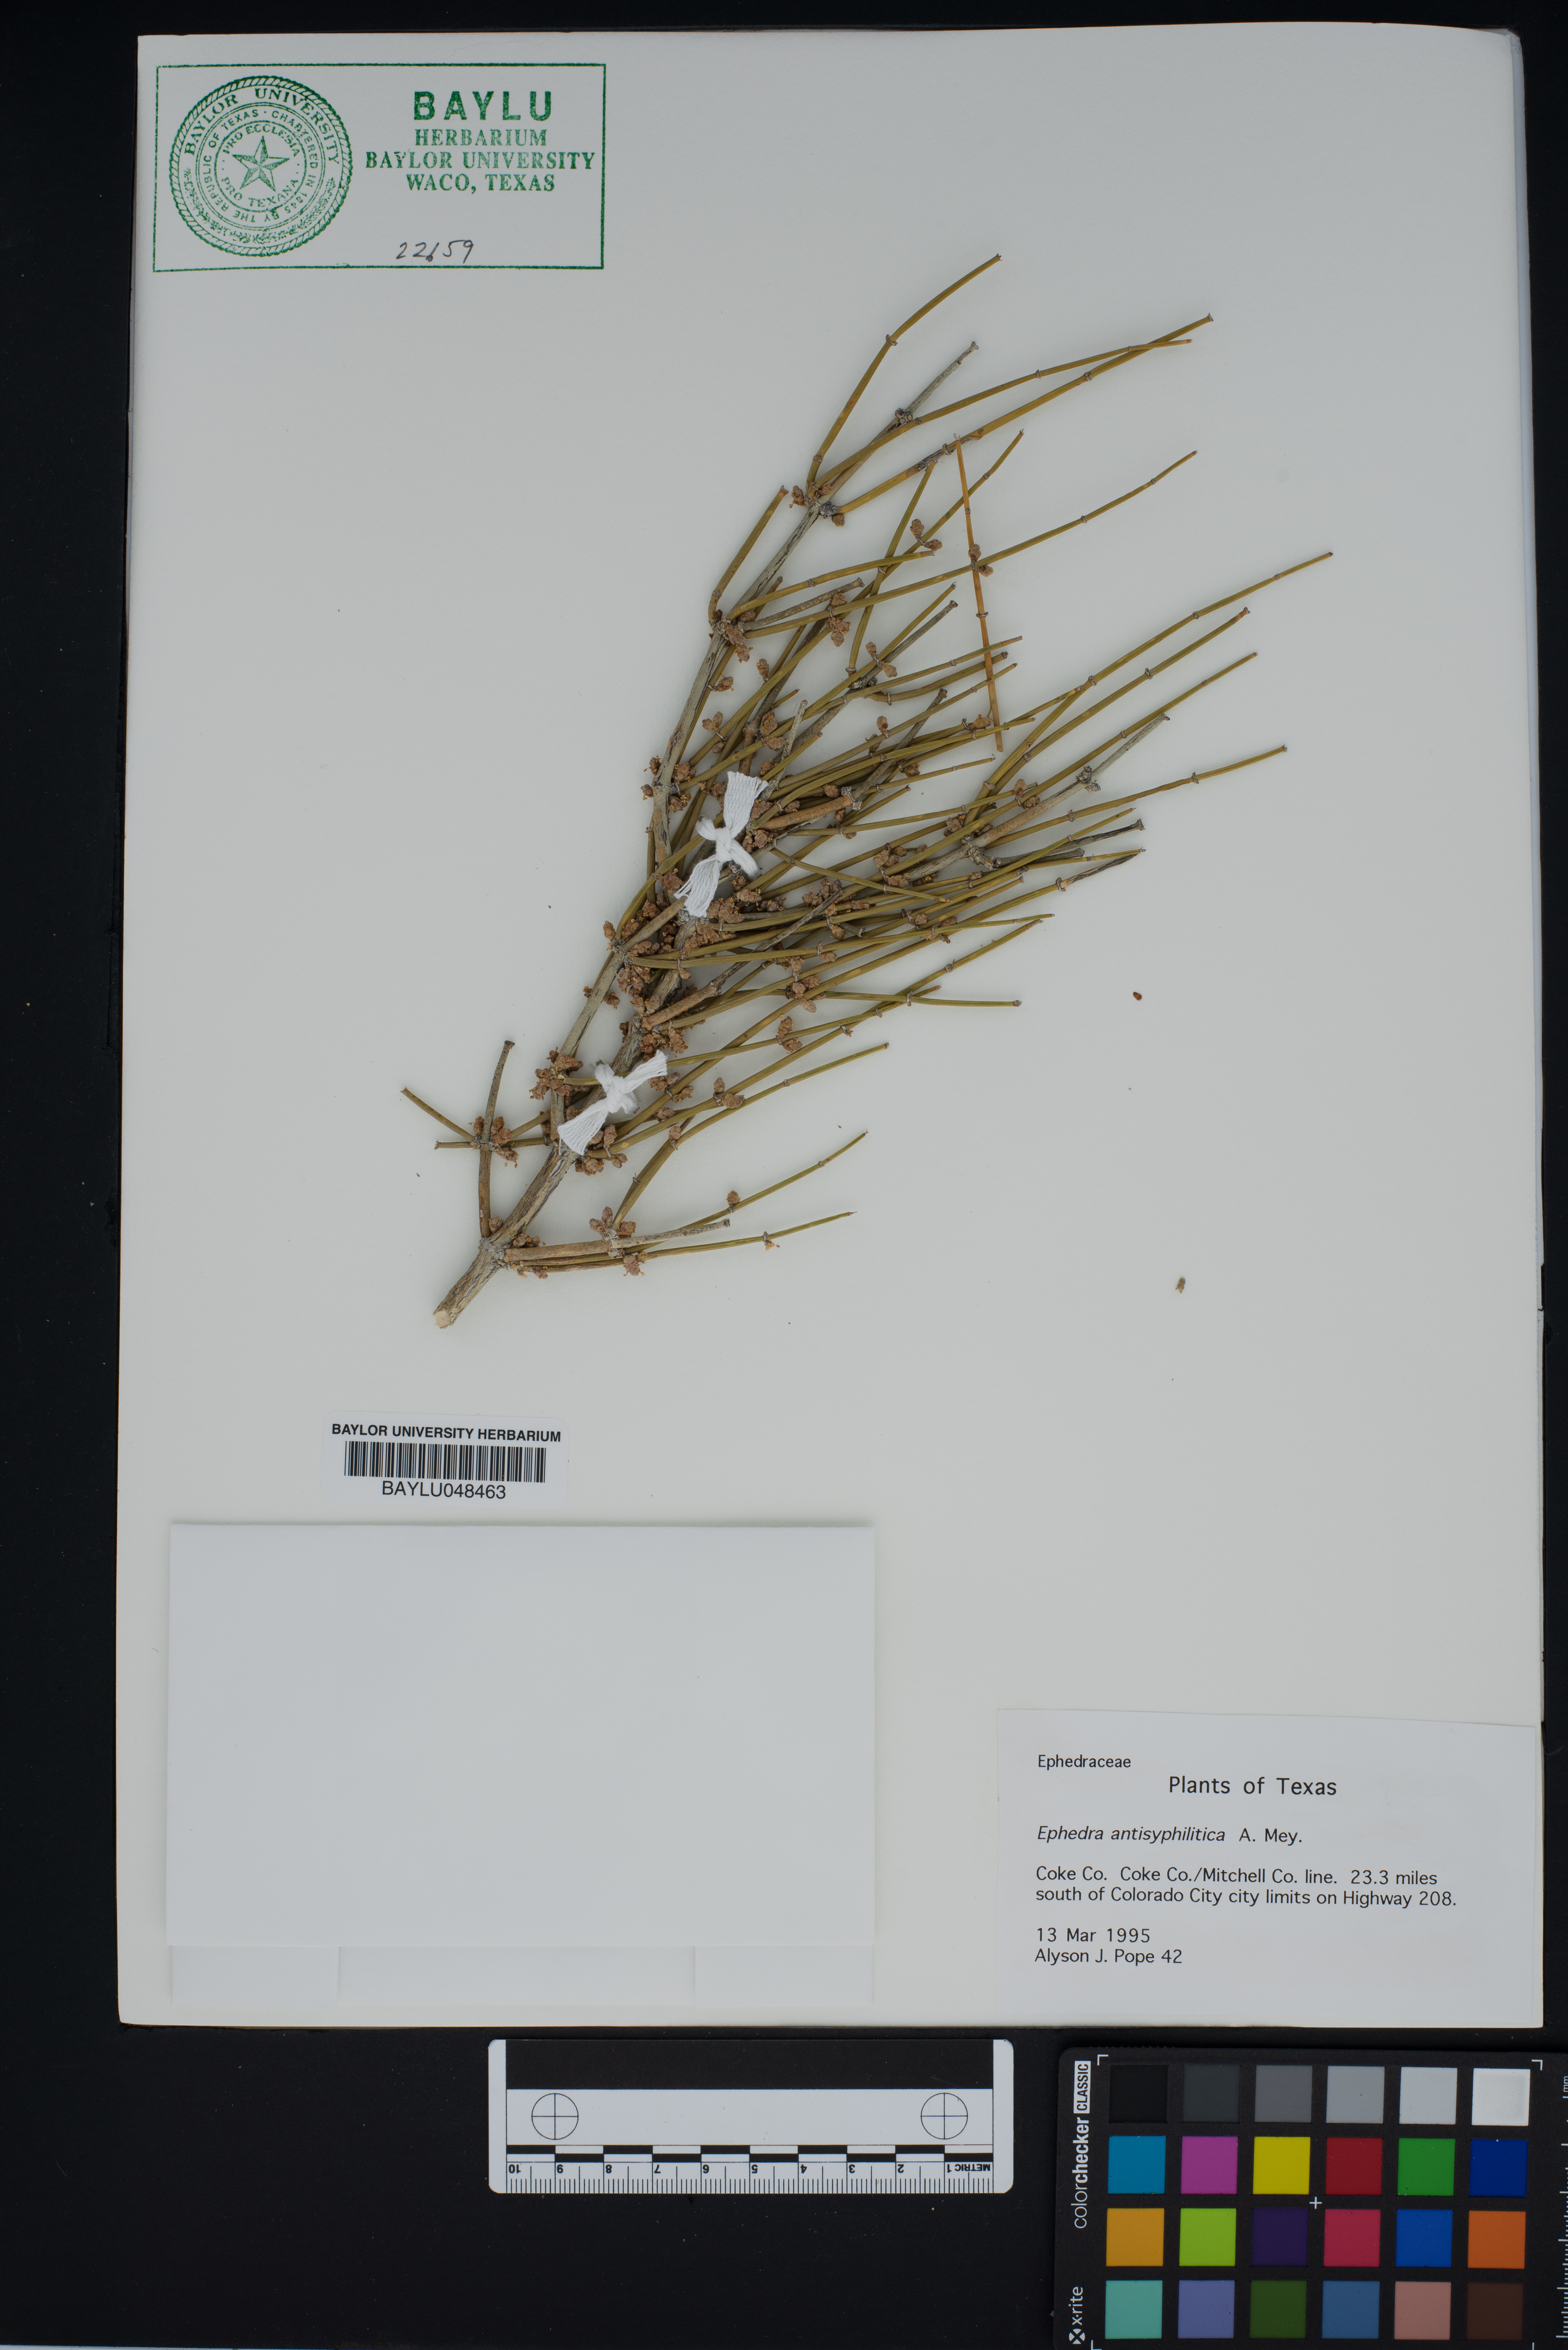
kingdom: Plantae
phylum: Tracheophyta
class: Gnetopsida
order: Ephedrales
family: Ephedraceae
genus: Ephedra
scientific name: Ephedra antisyphilitica
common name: Clipweed
